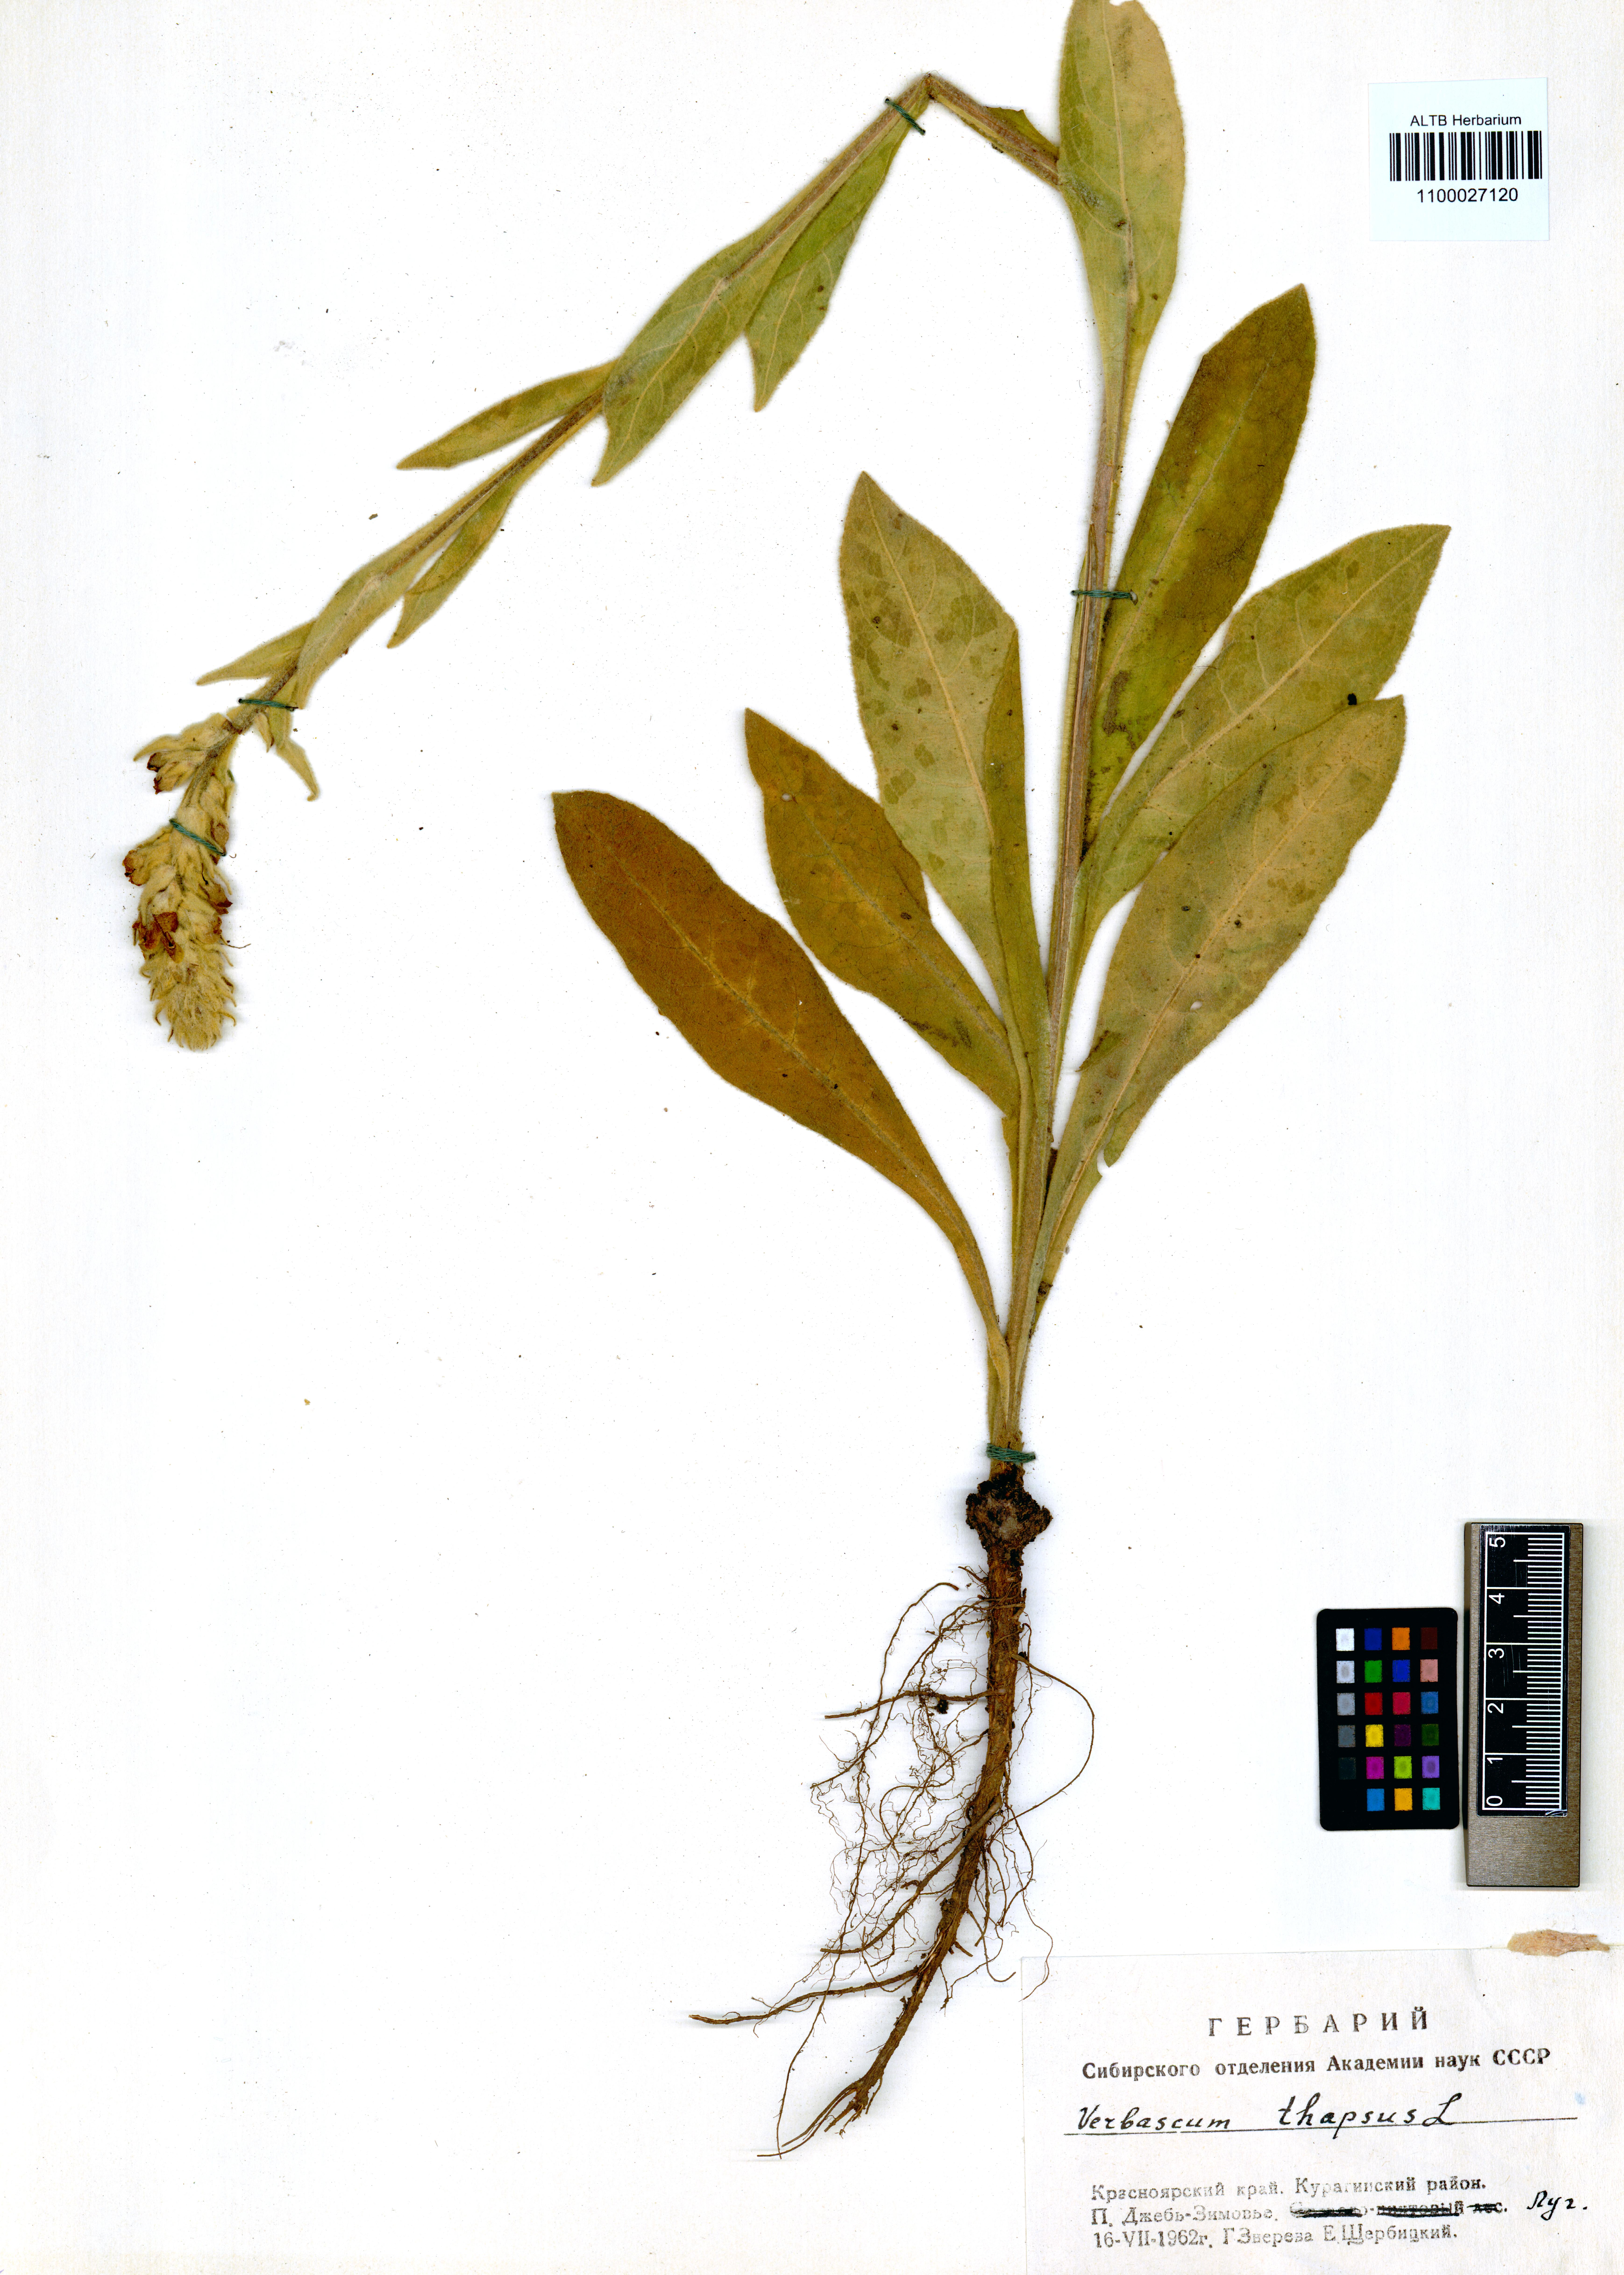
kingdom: Plantae
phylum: Tracheophyta
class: Magnoliopsida
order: Lamiales
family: Scrophulariaceae
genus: Verbascum
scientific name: Verbascum thapsus
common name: Common mullein
